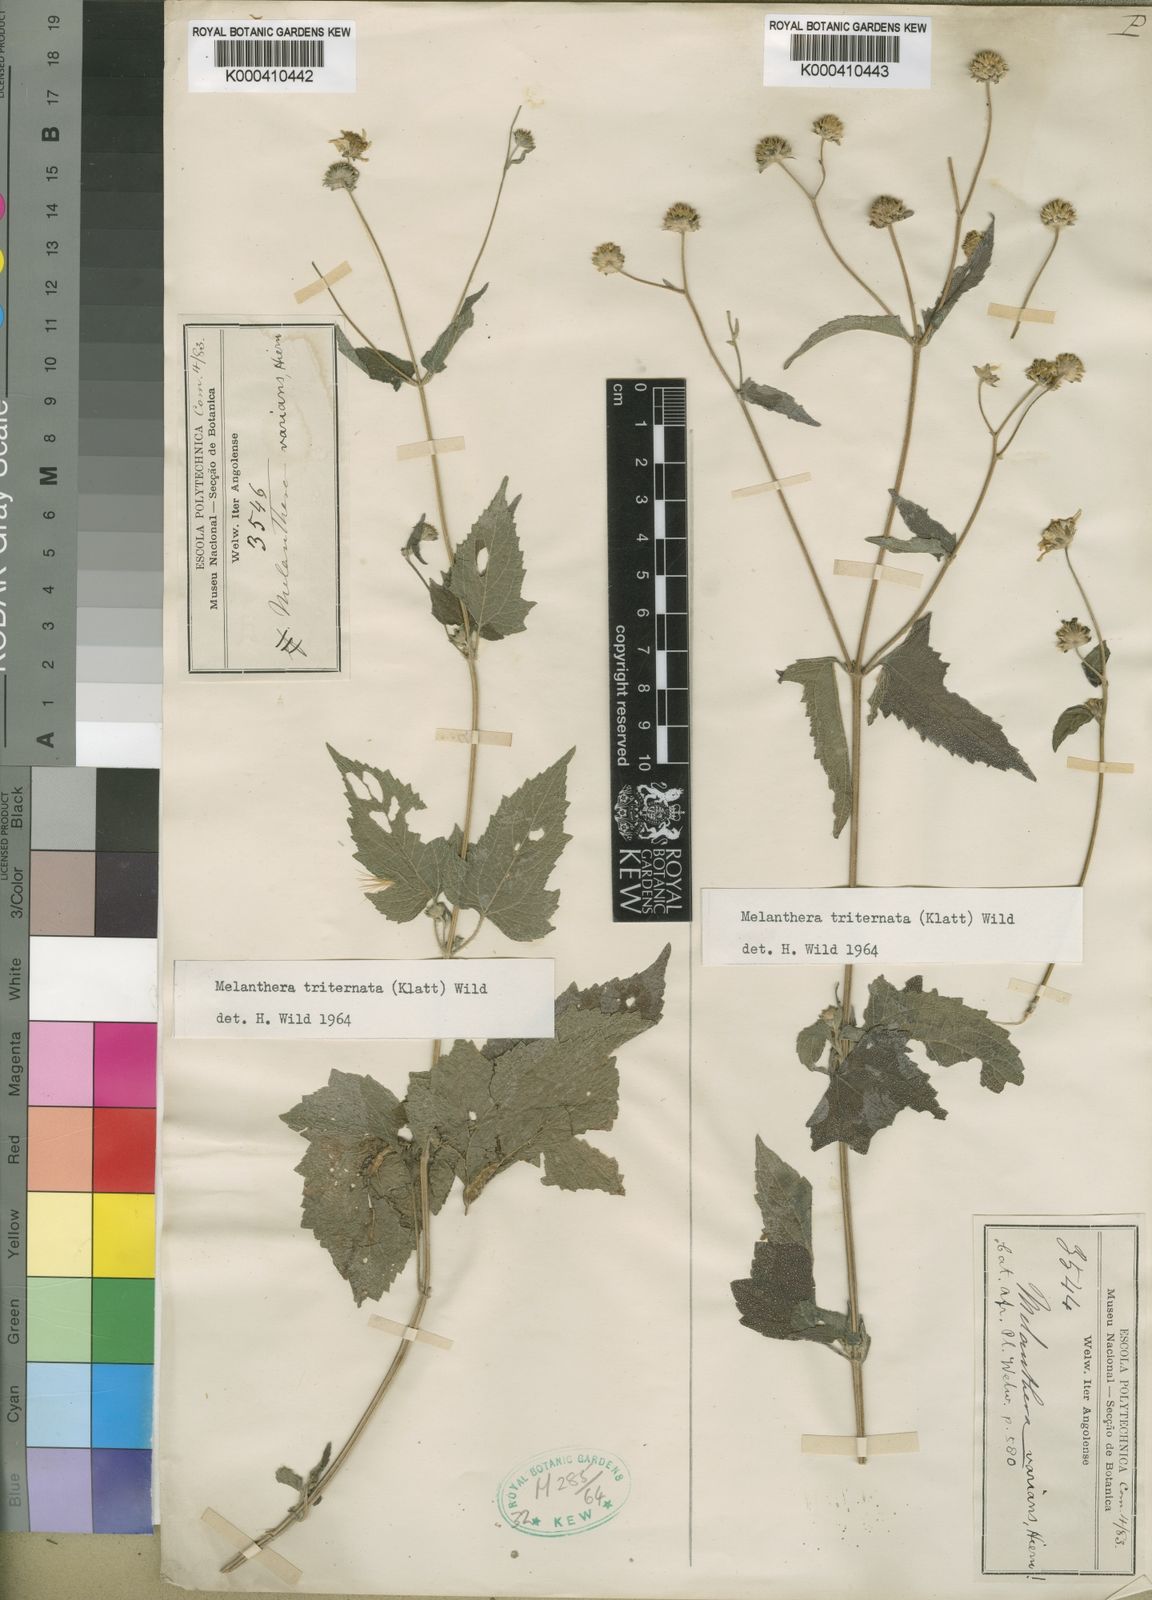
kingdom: Plantae
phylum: Tracheophyta
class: Magnoliopsida
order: Asterales
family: Asteraceae
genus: Lipotriche
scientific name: Lipotriche marlothiana
